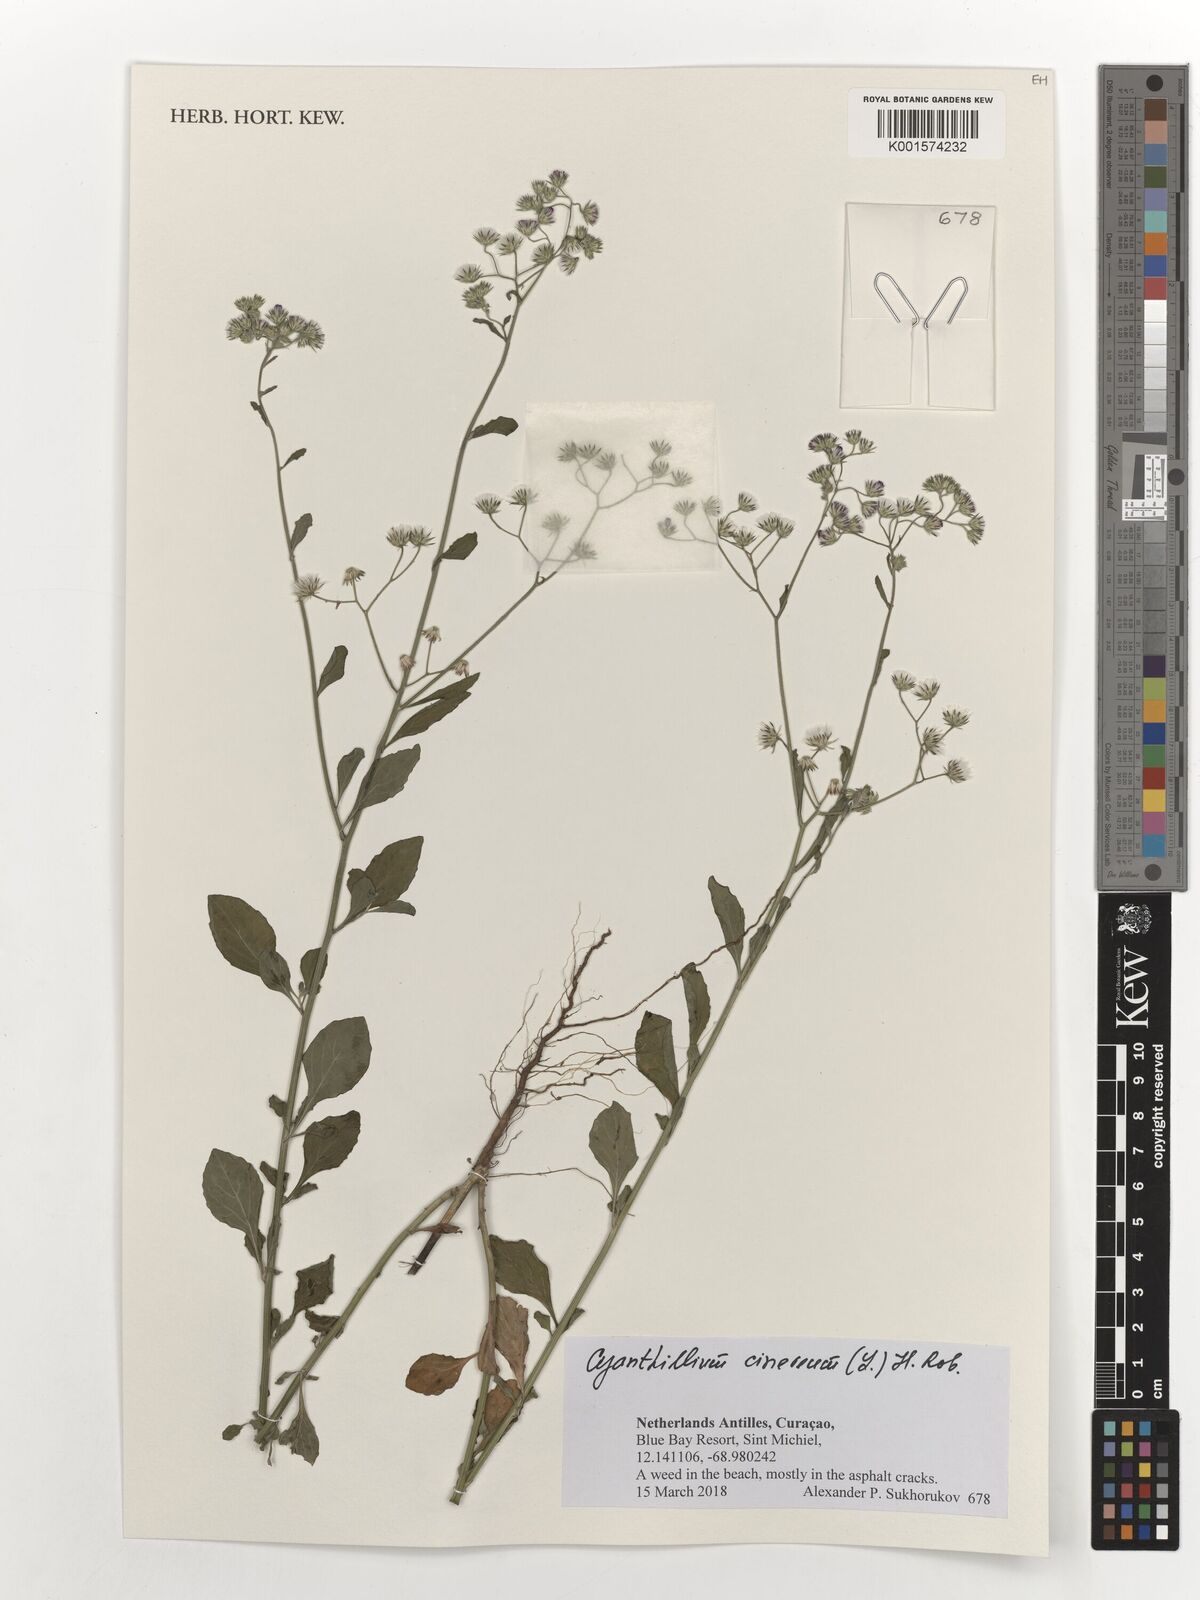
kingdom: Plantae
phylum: Tracheophyta
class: Magnoliopsida
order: Asterales
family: Asteraceae
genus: Cyanthillium
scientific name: Cyanthillium cinereum
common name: Little ironweed
